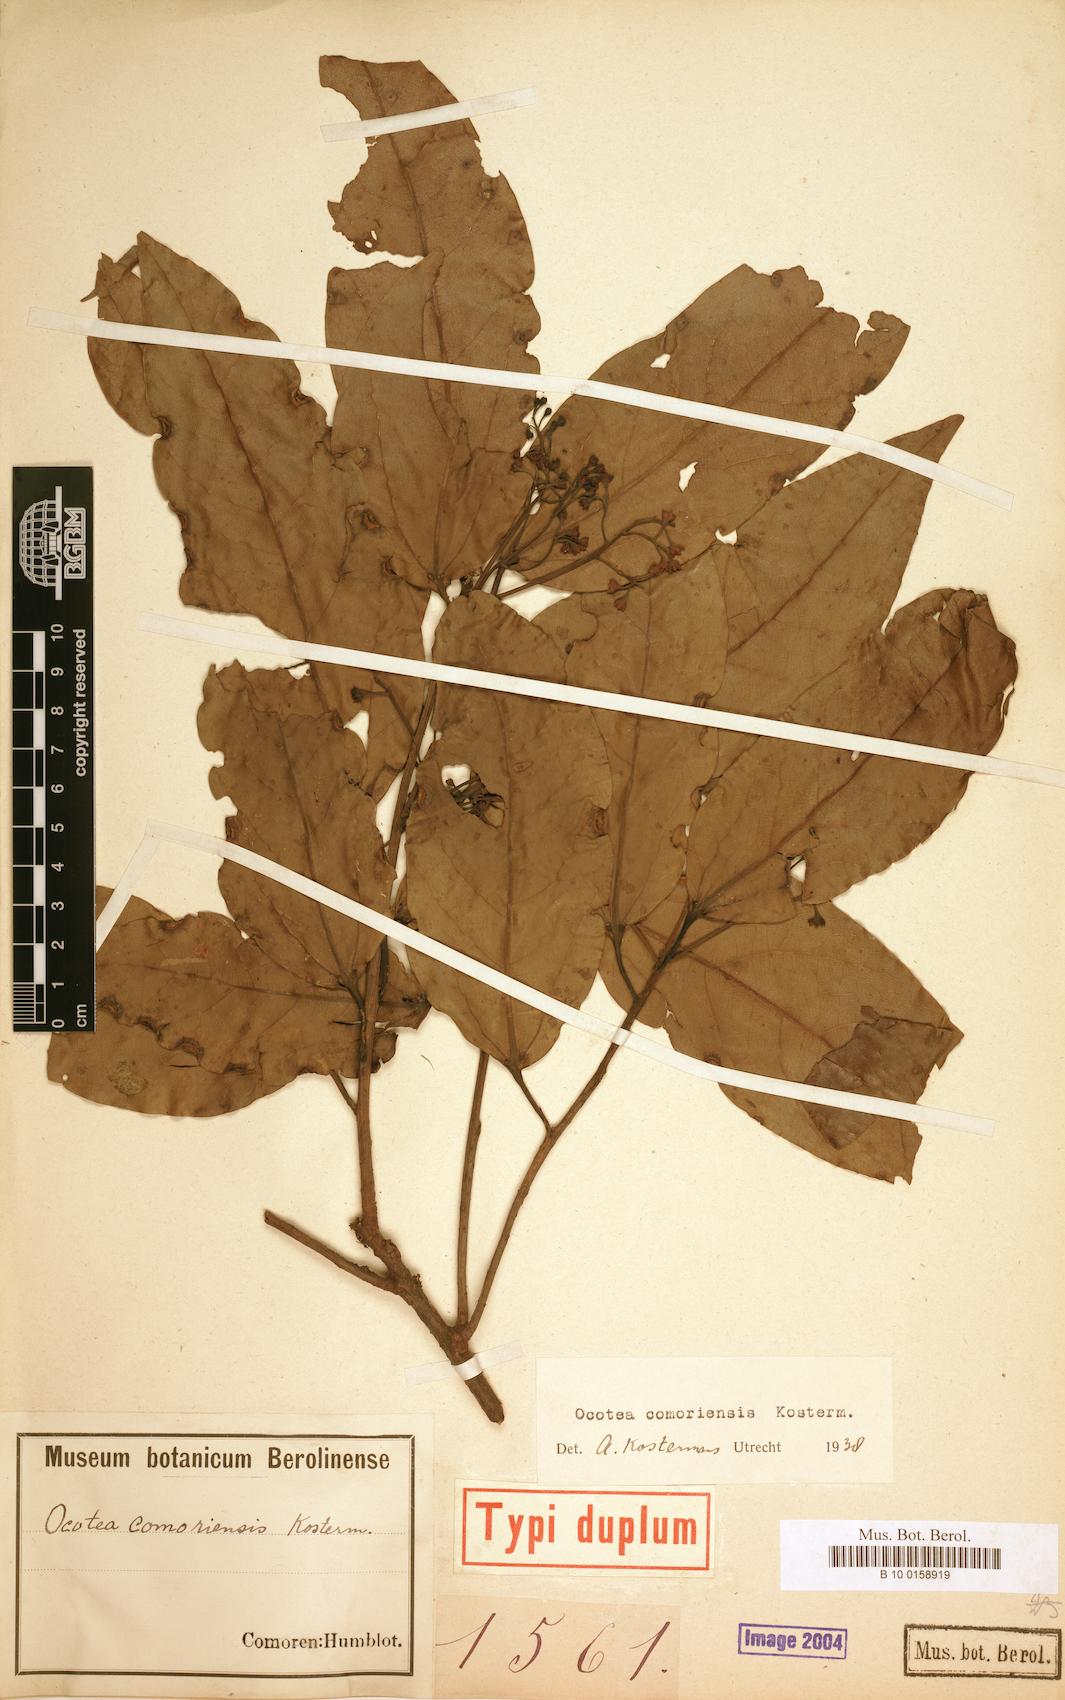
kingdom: Plantae
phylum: Tracheophyta
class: Magnoliopsida
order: Laurales
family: Lauraceae
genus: Ocotea
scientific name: Ocotea comoriensis
